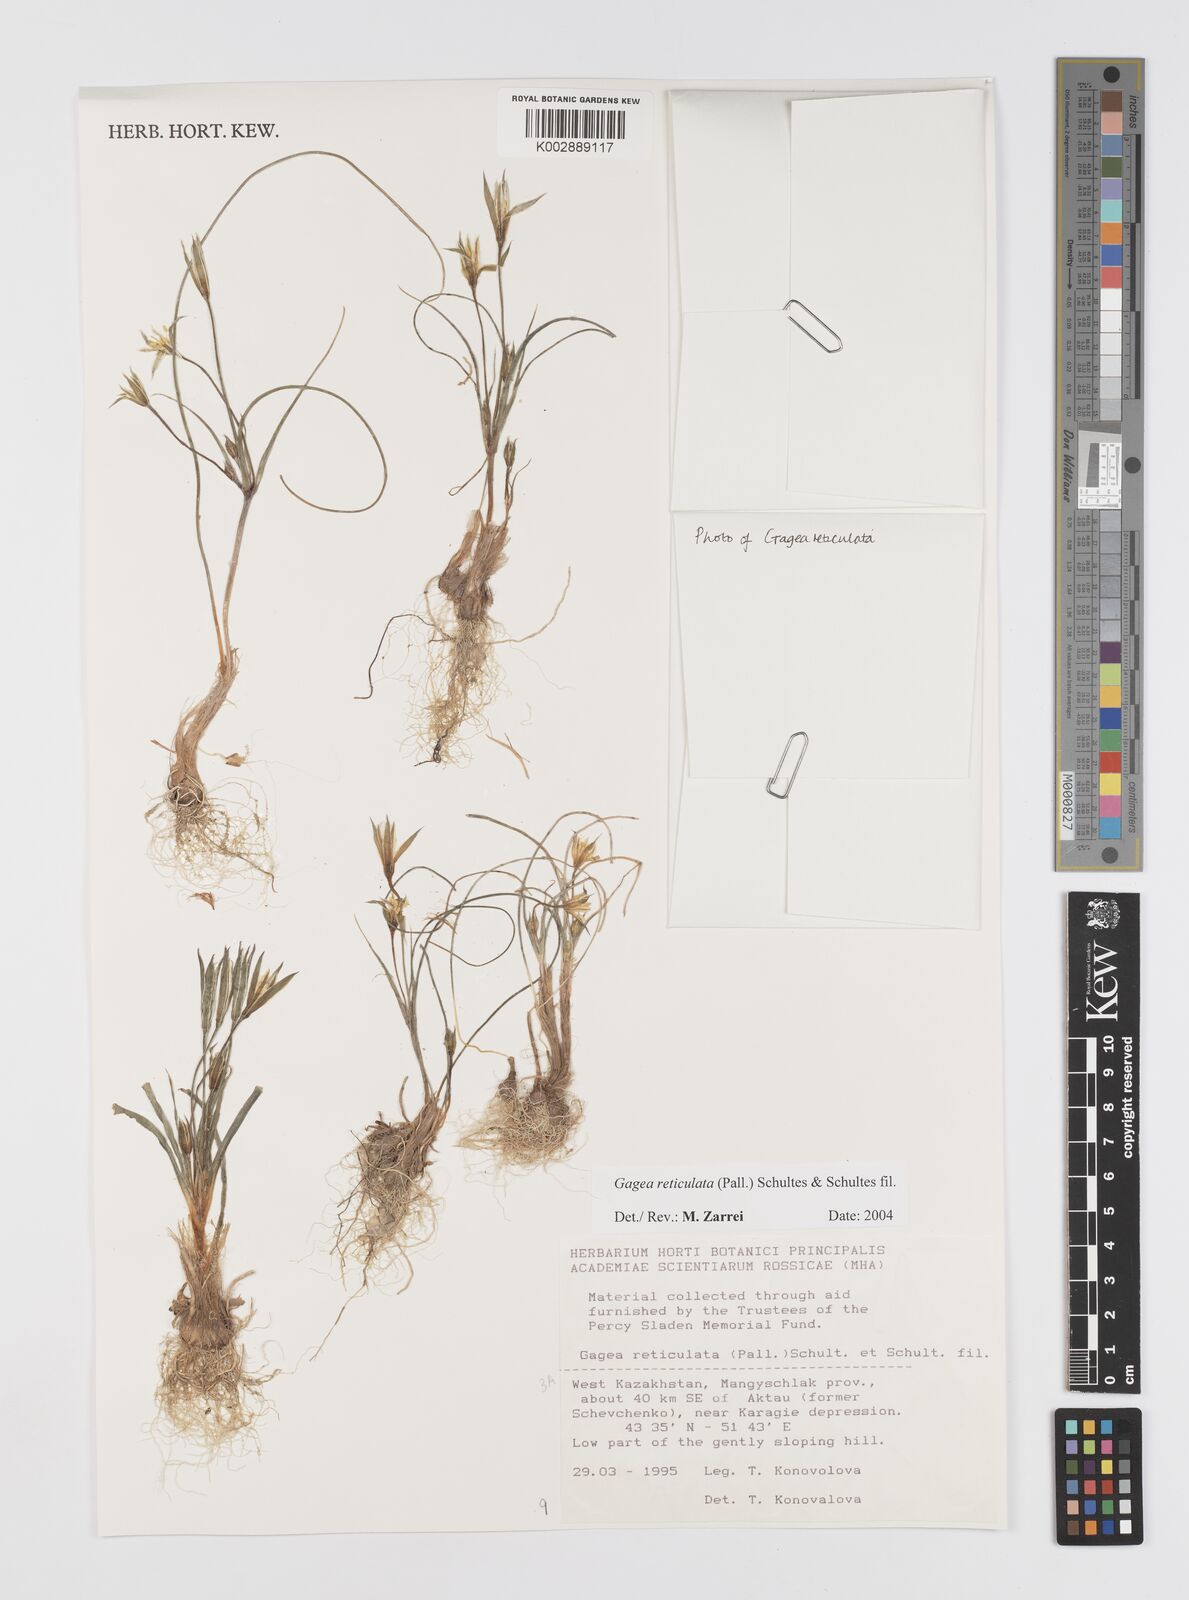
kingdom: Plantae
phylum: Tracheophyta
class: Liliopsida
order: Liliales
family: Liliaceae
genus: Gagea
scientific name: Gagea reticulata
